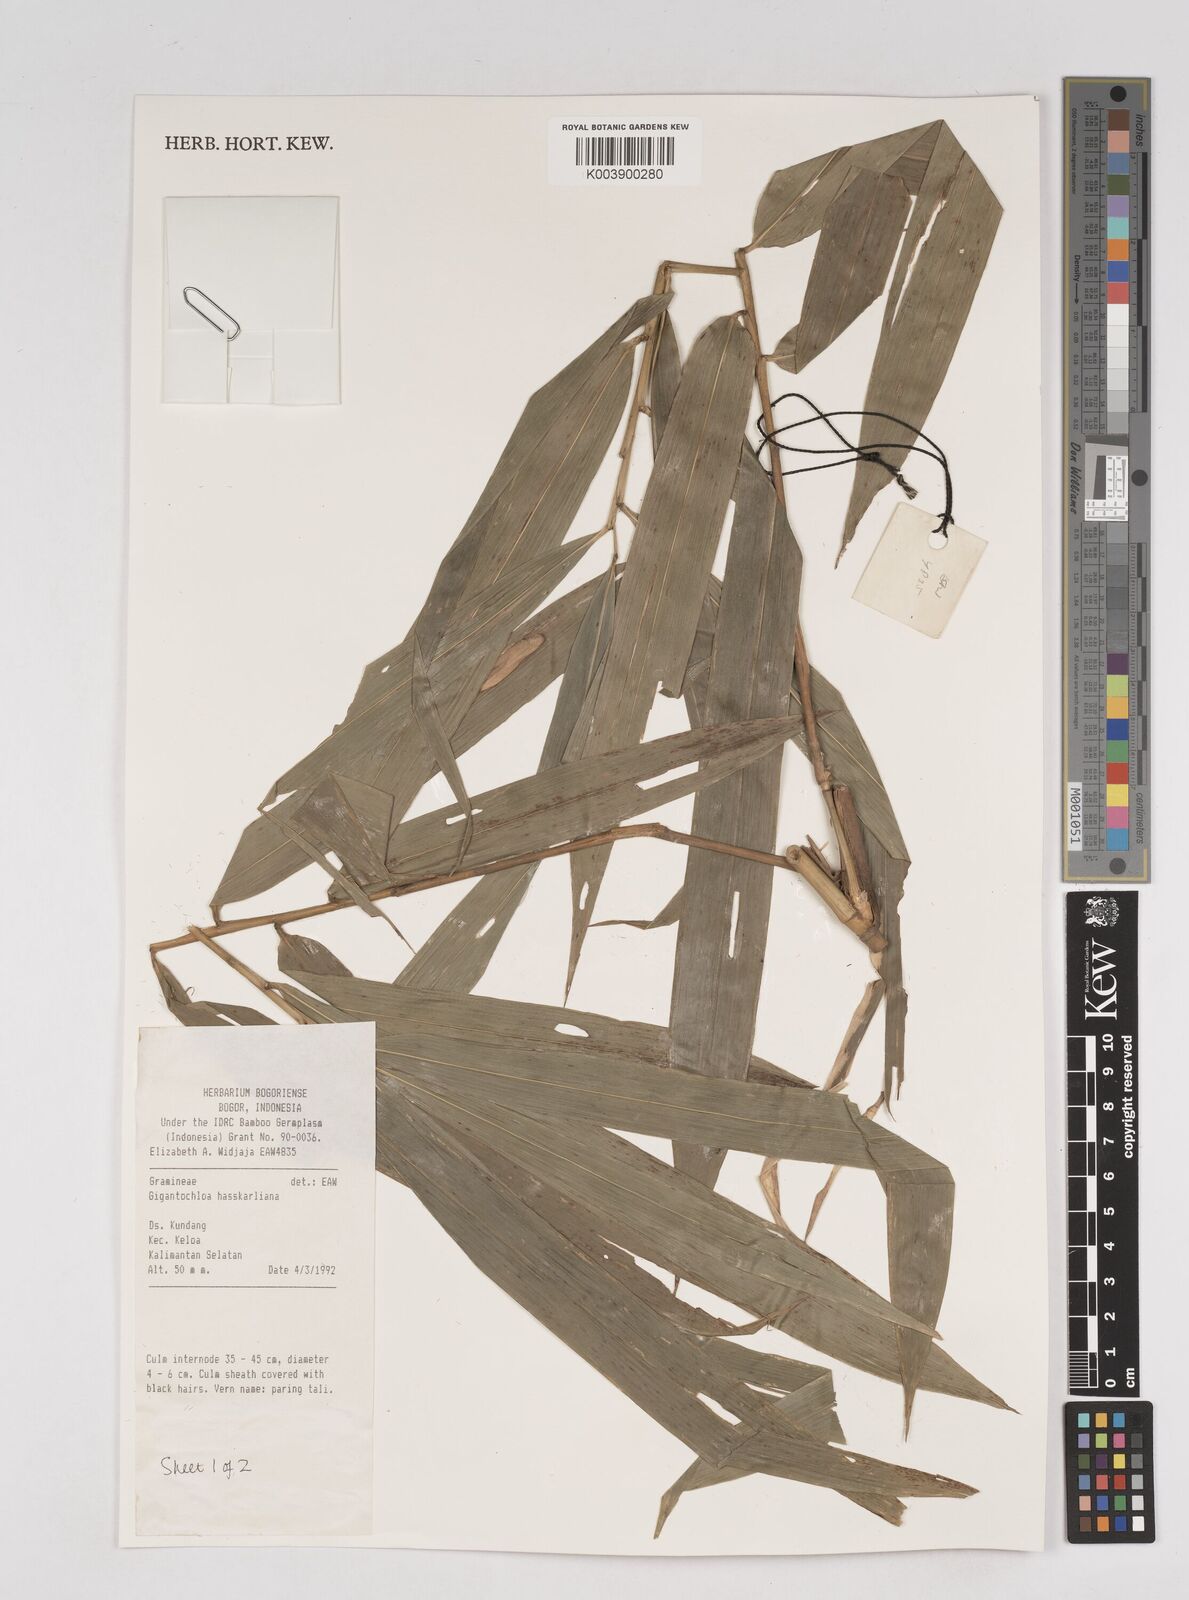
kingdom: Plantae
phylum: Tracheophyta
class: Liliopsida
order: Poales
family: Poaceae
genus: Gigantochloa
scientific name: Gigantochloa hasskarliana
